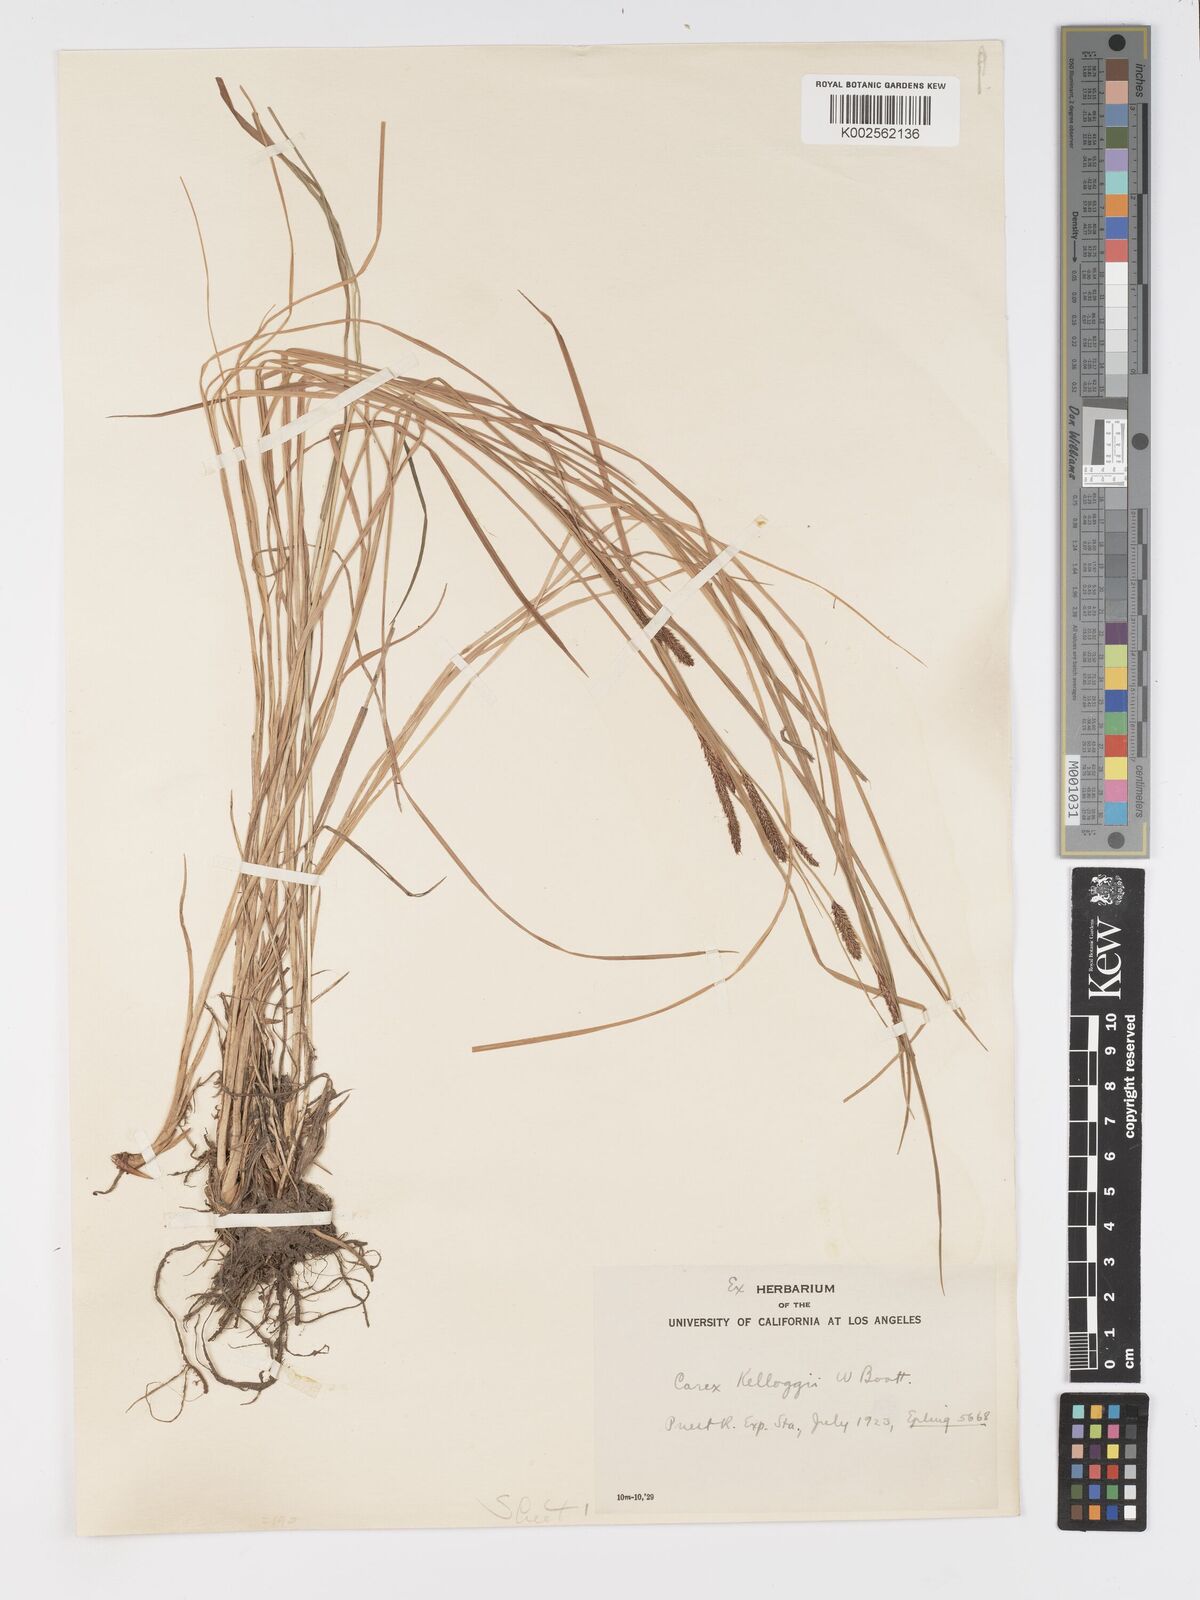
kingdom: Plantae
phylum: Tracheophyta
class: Liliopsida
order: Poales
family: Cyperaceae
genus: Carex
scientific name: Carex kelloggii
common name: Kellogg's sedge
